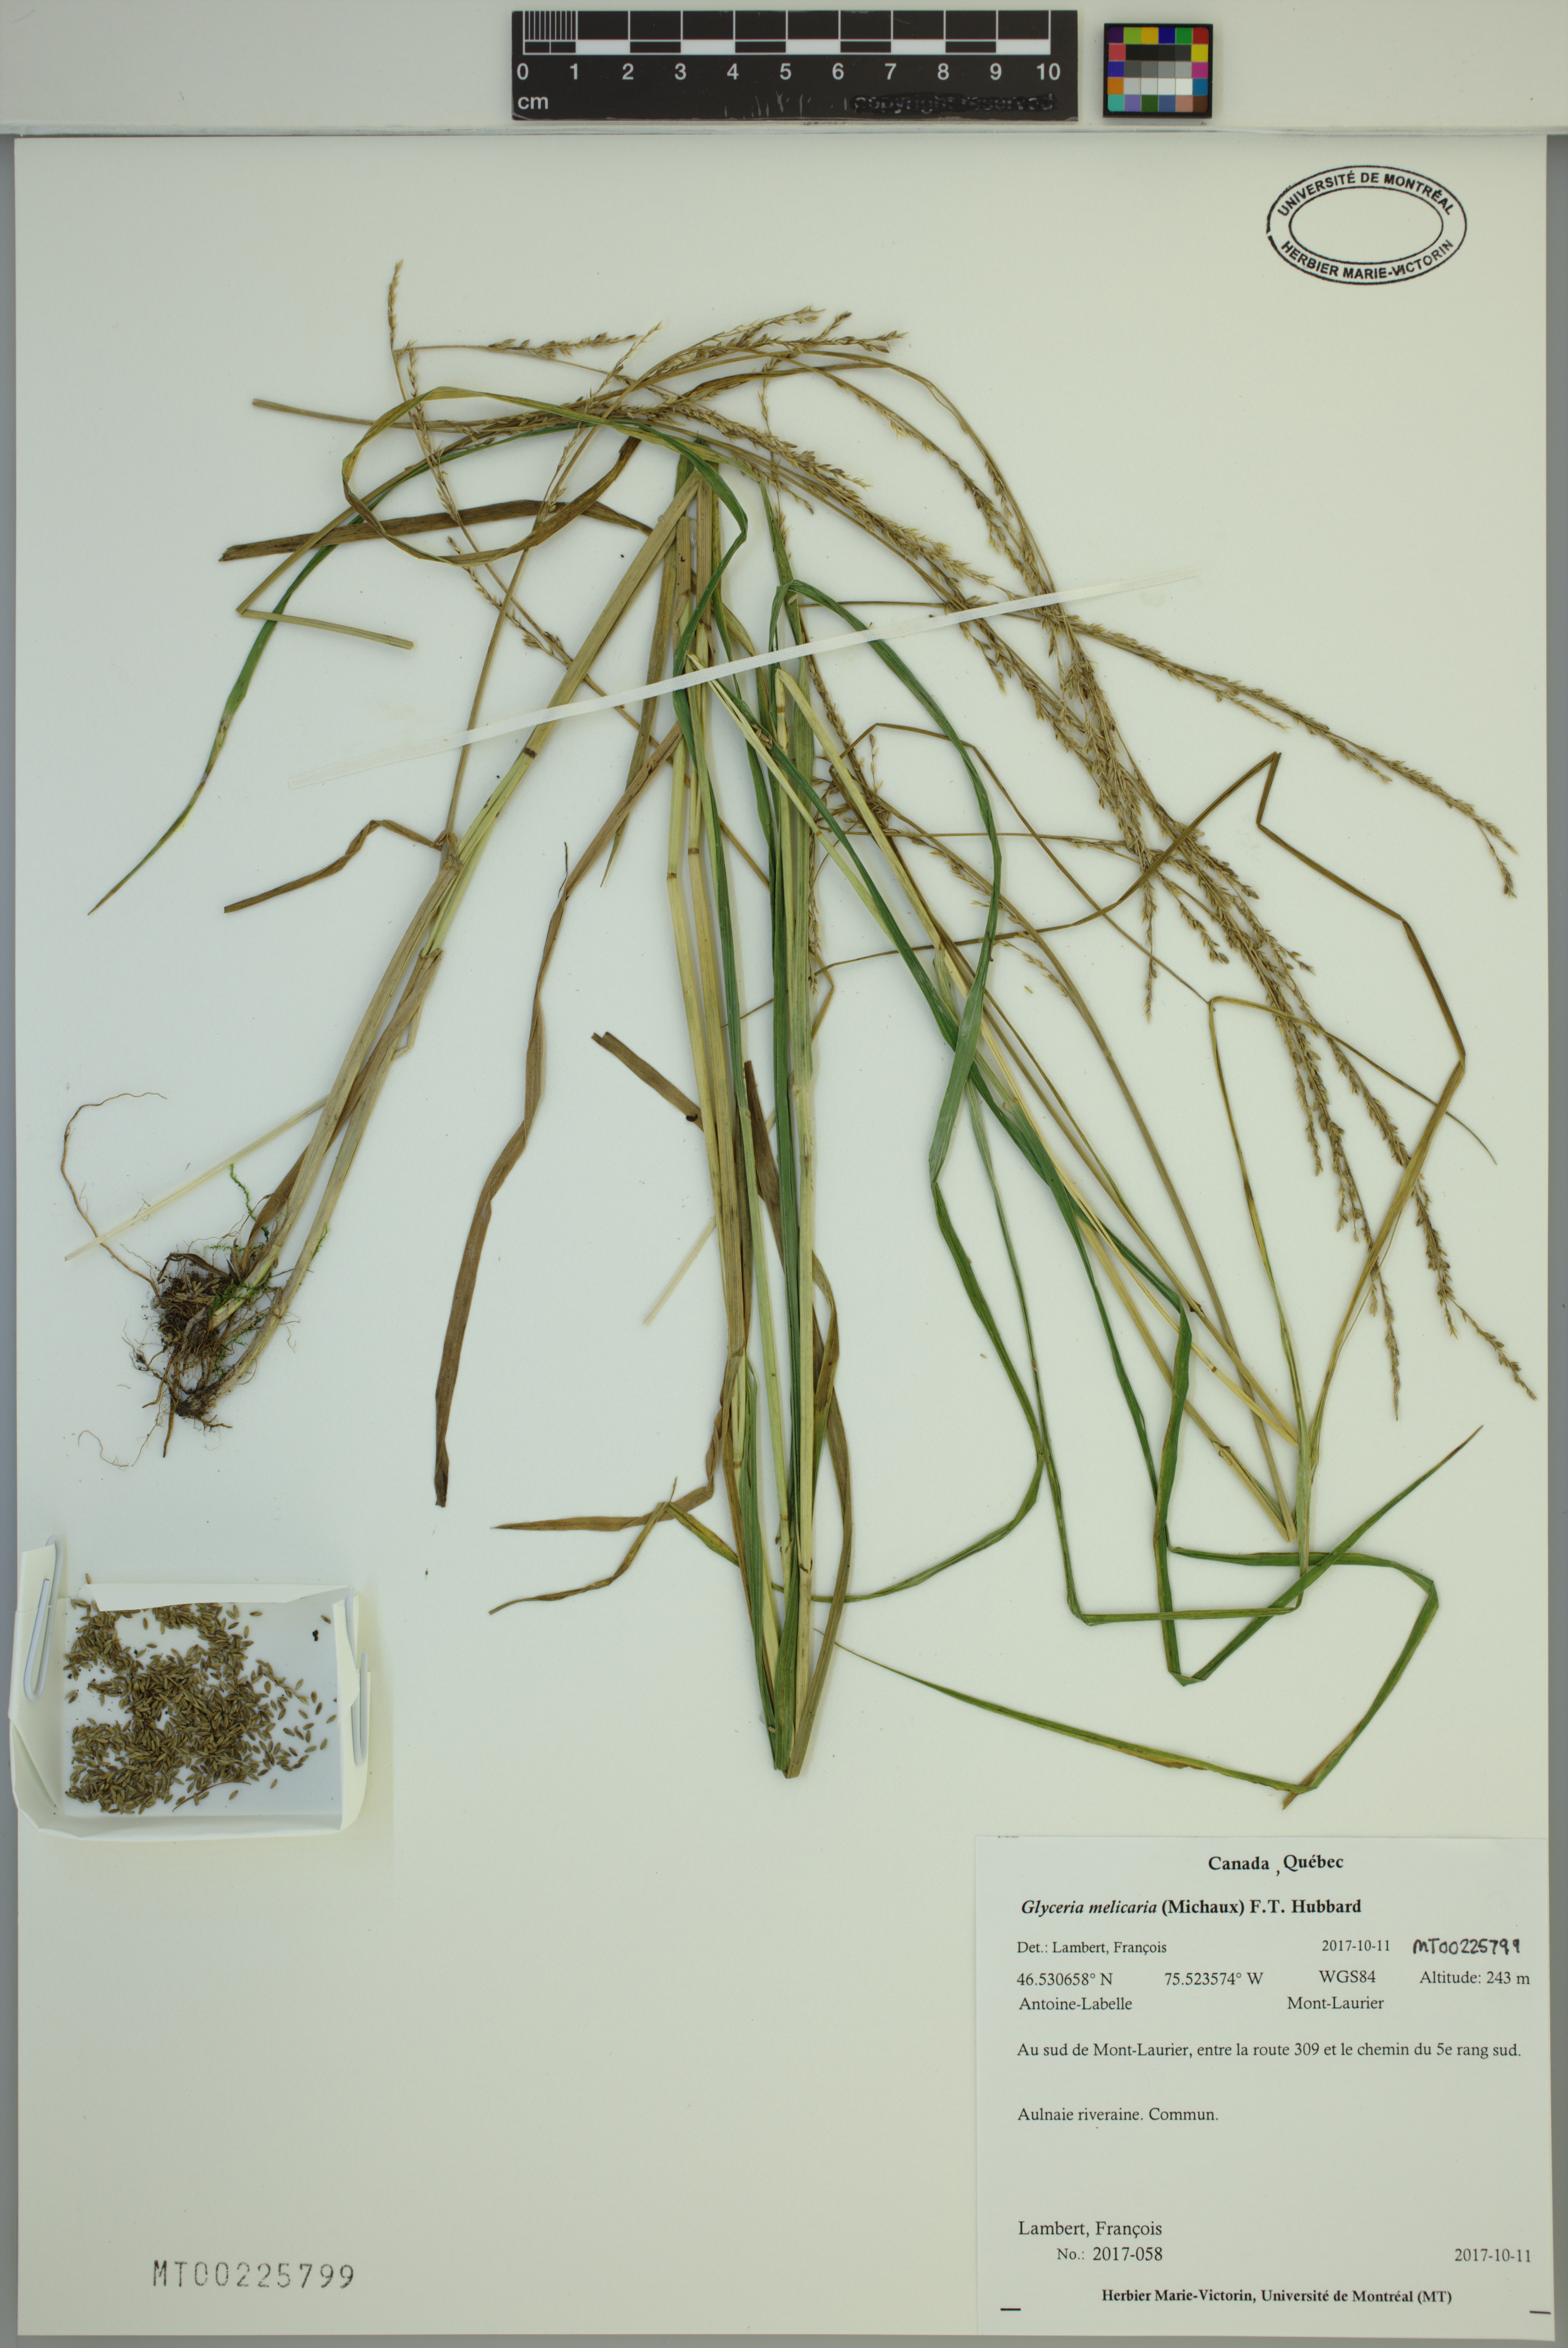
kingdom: Plantae
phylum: Tracheophyta
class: Liliopsida
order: Poales
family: Poaceae
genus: Glyceria
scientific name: Glyceria melicaria
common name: Long mannagrass
